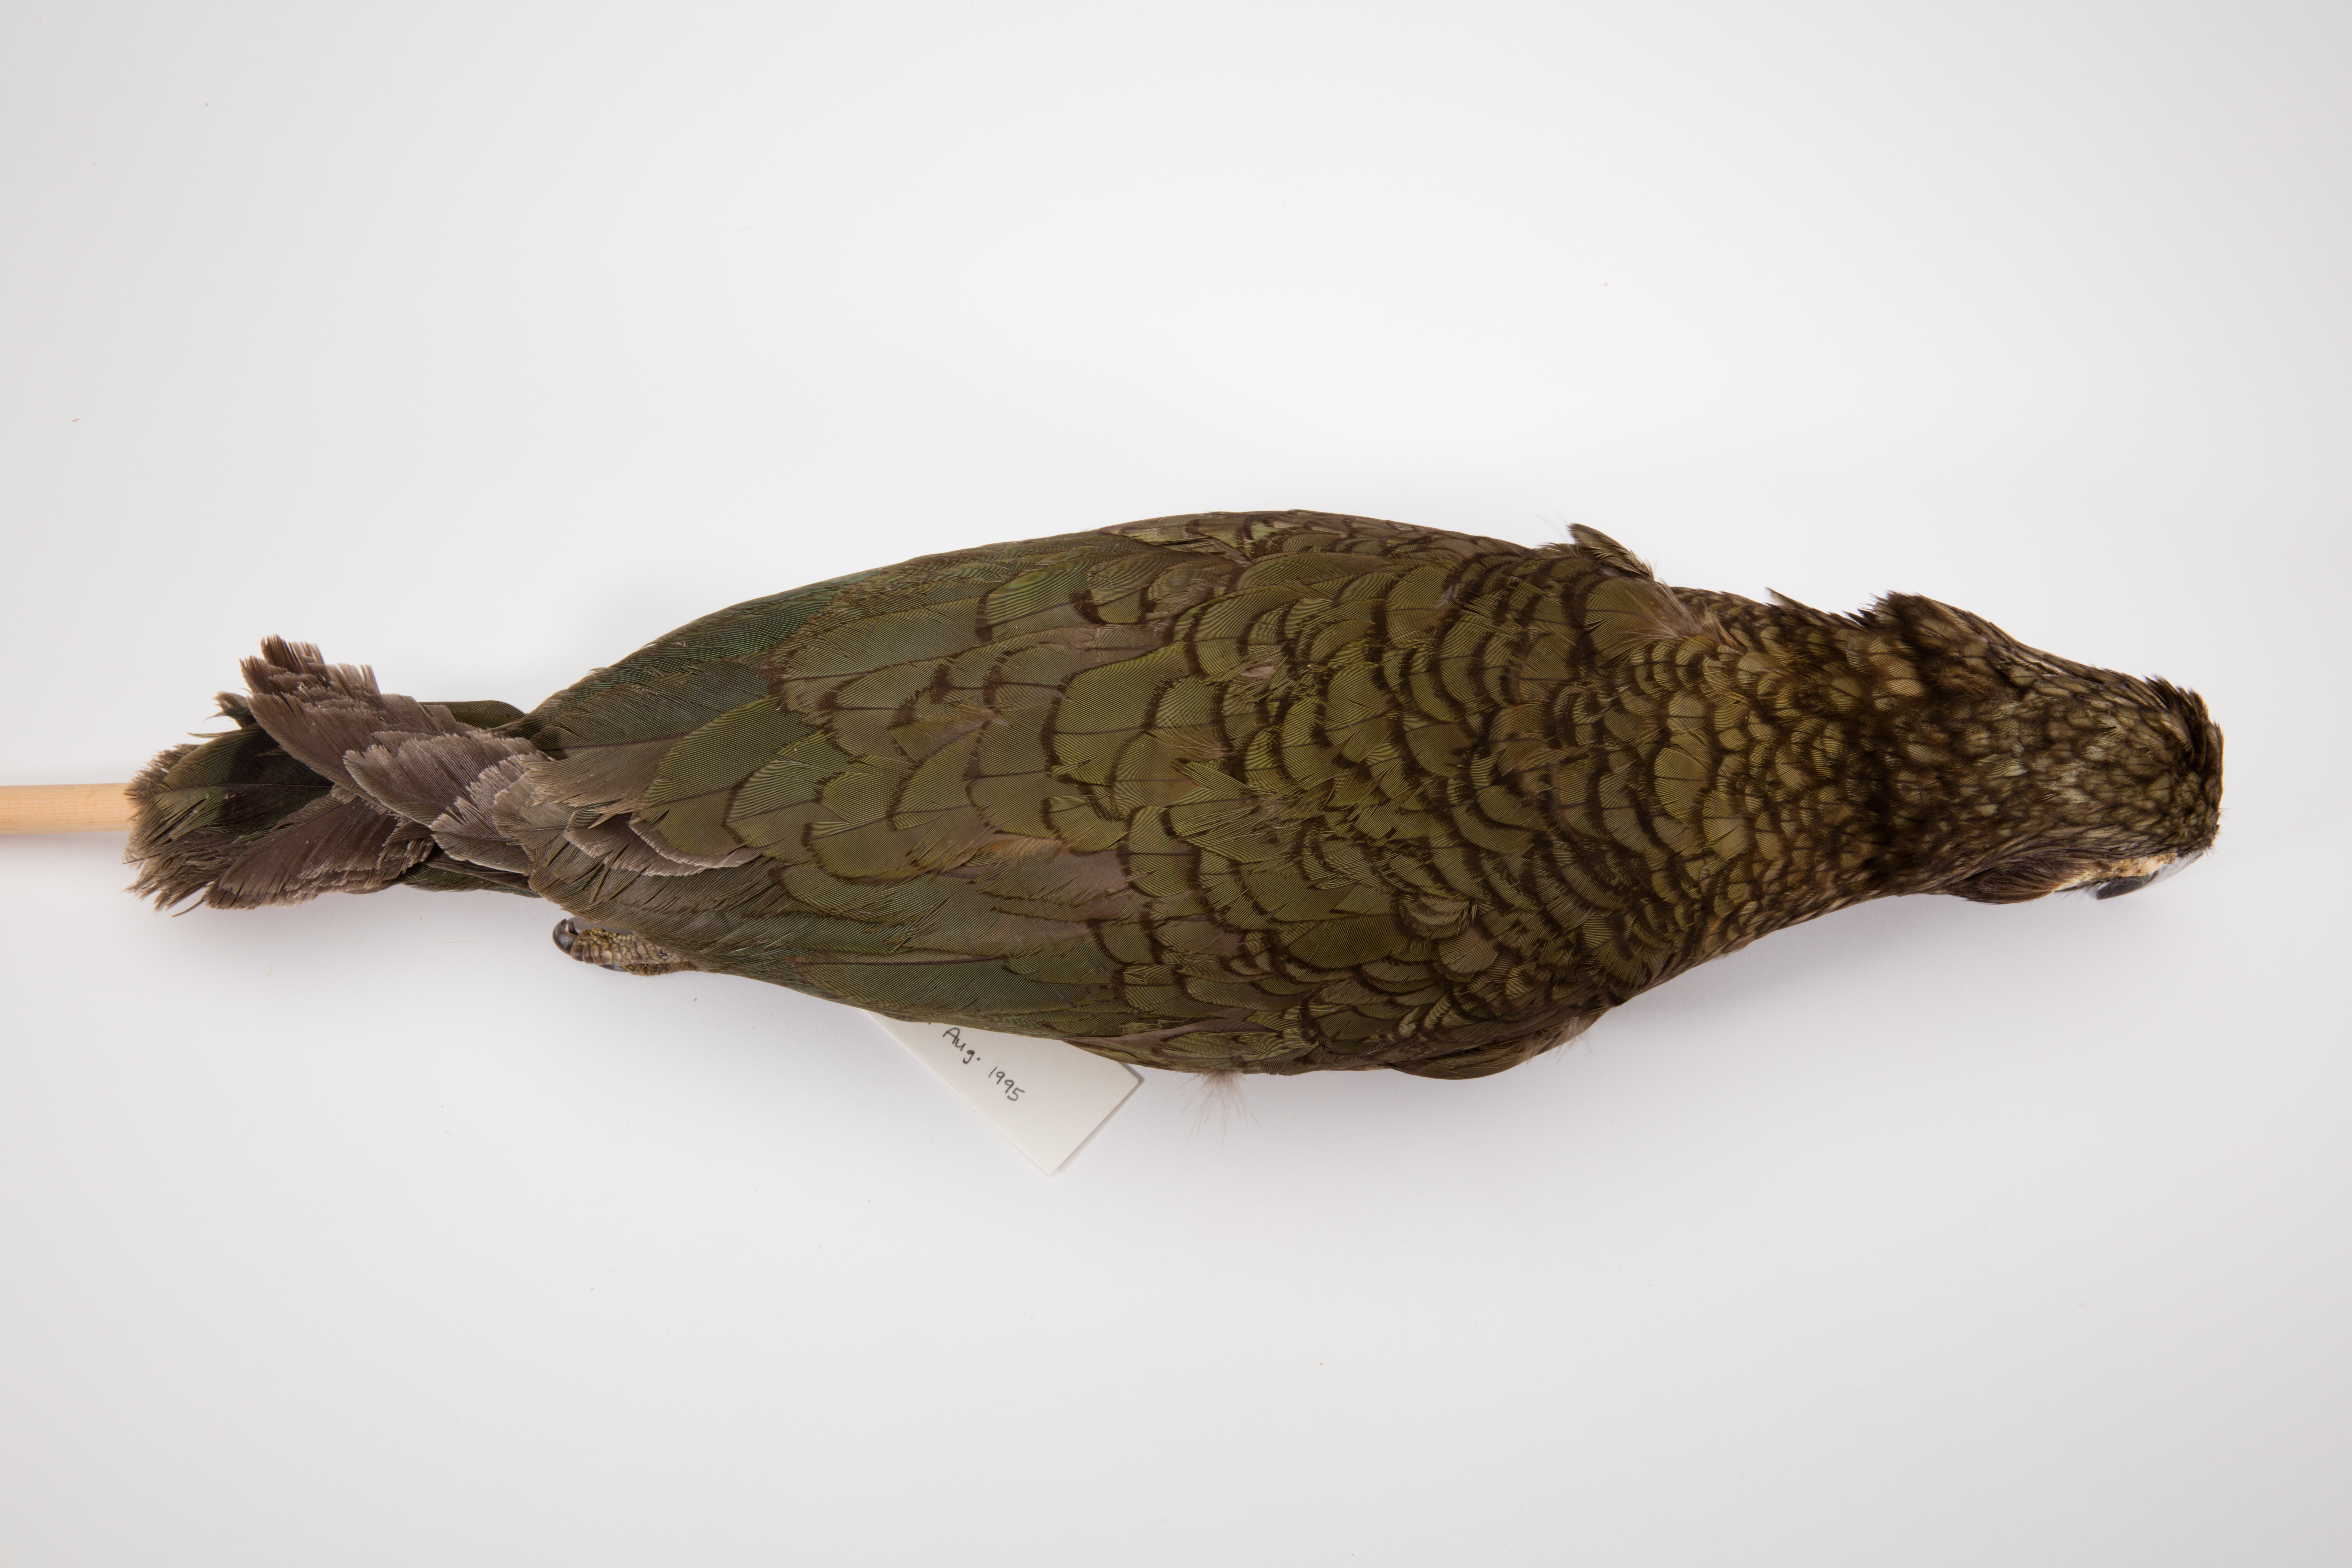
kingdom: Animalia
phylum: Chordata
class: Aves
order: Psittaciformes
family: Psittacidae
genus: Nestor
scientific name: Nestor notabilis
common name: Kea
